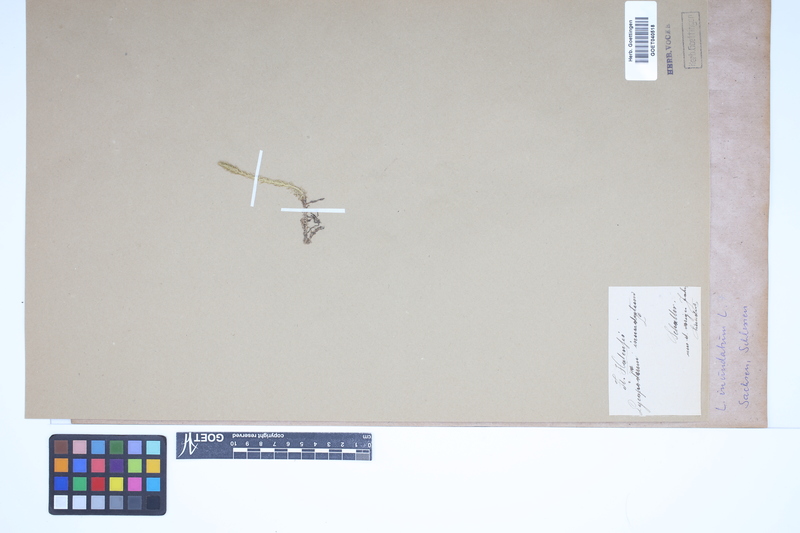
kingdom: Plantae
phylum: Tracheophyta
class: Lycopodiopsida
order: Lycopodiales
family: Lycopodiaceae
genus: Lycopodiella
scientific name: Lycopodiella inundata
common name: Marsh clubmoss
